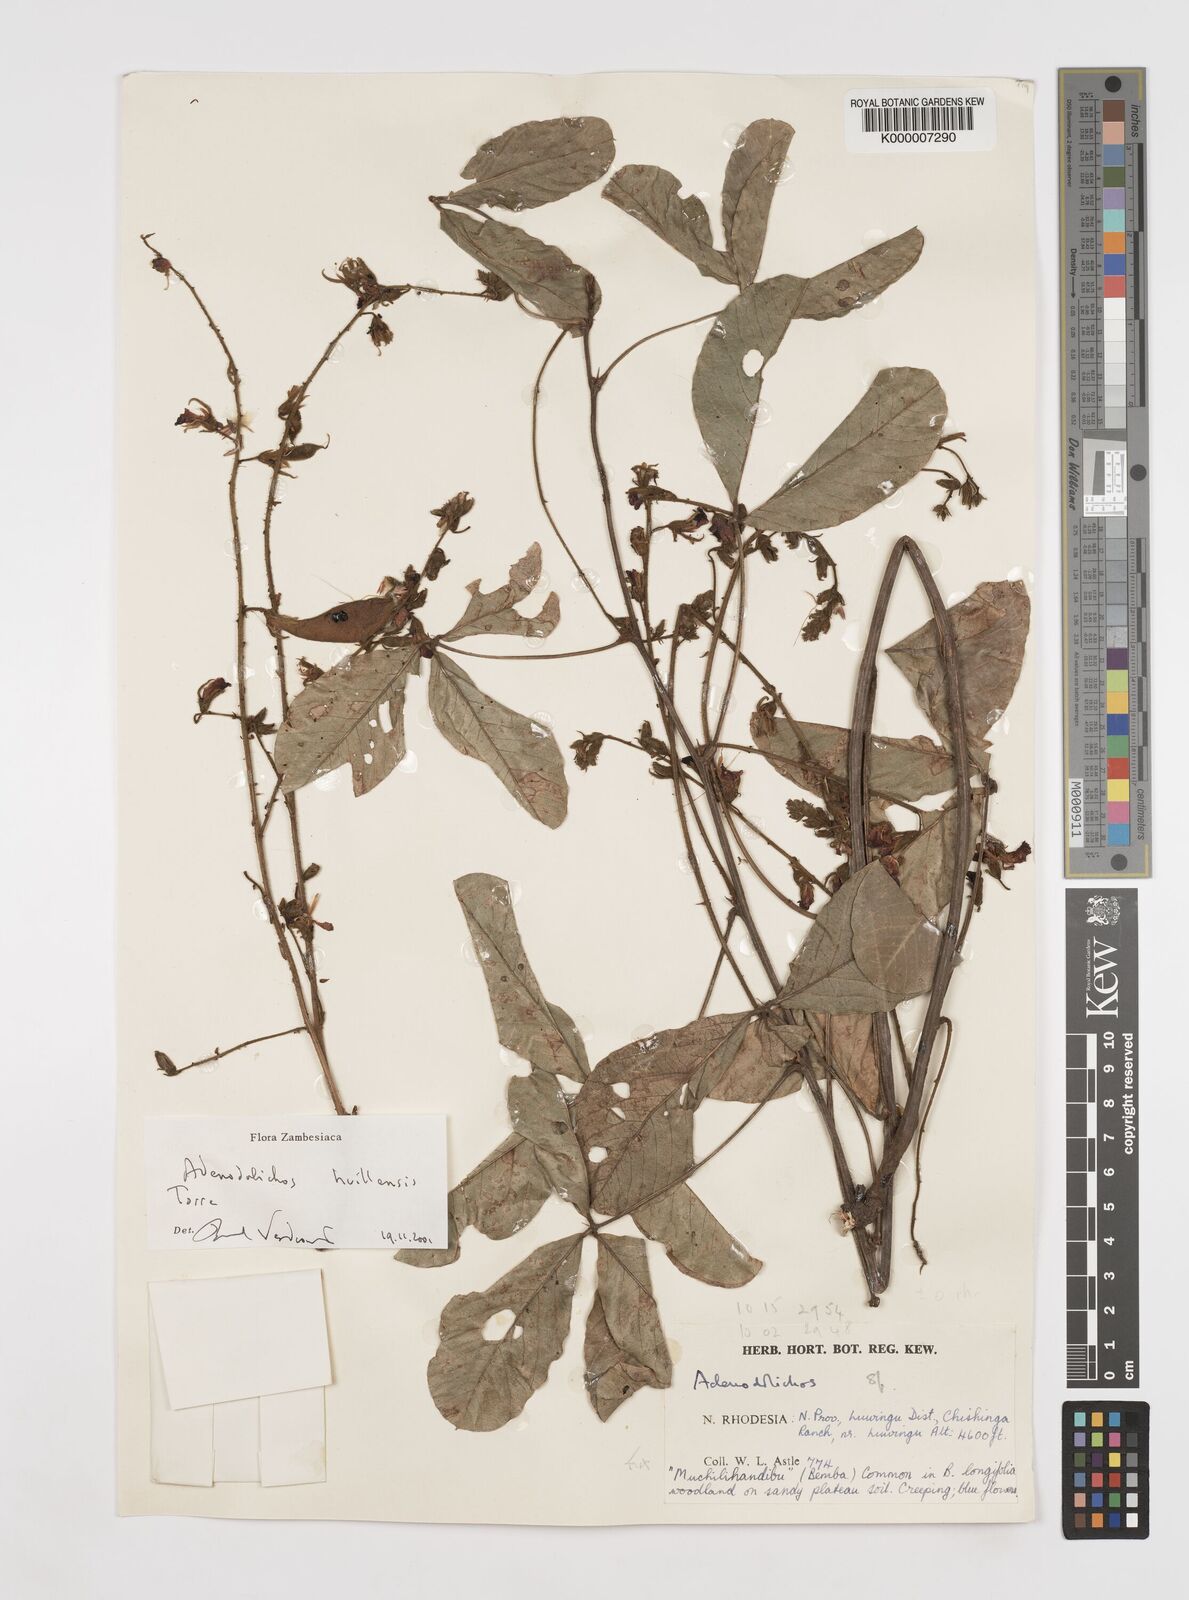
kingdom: Plantae
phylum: Tracheophyta
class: Magnoliopsida
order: Fabales
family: Fabaceae
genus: Adenodolichos
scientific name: Adenodolichos huillensis
